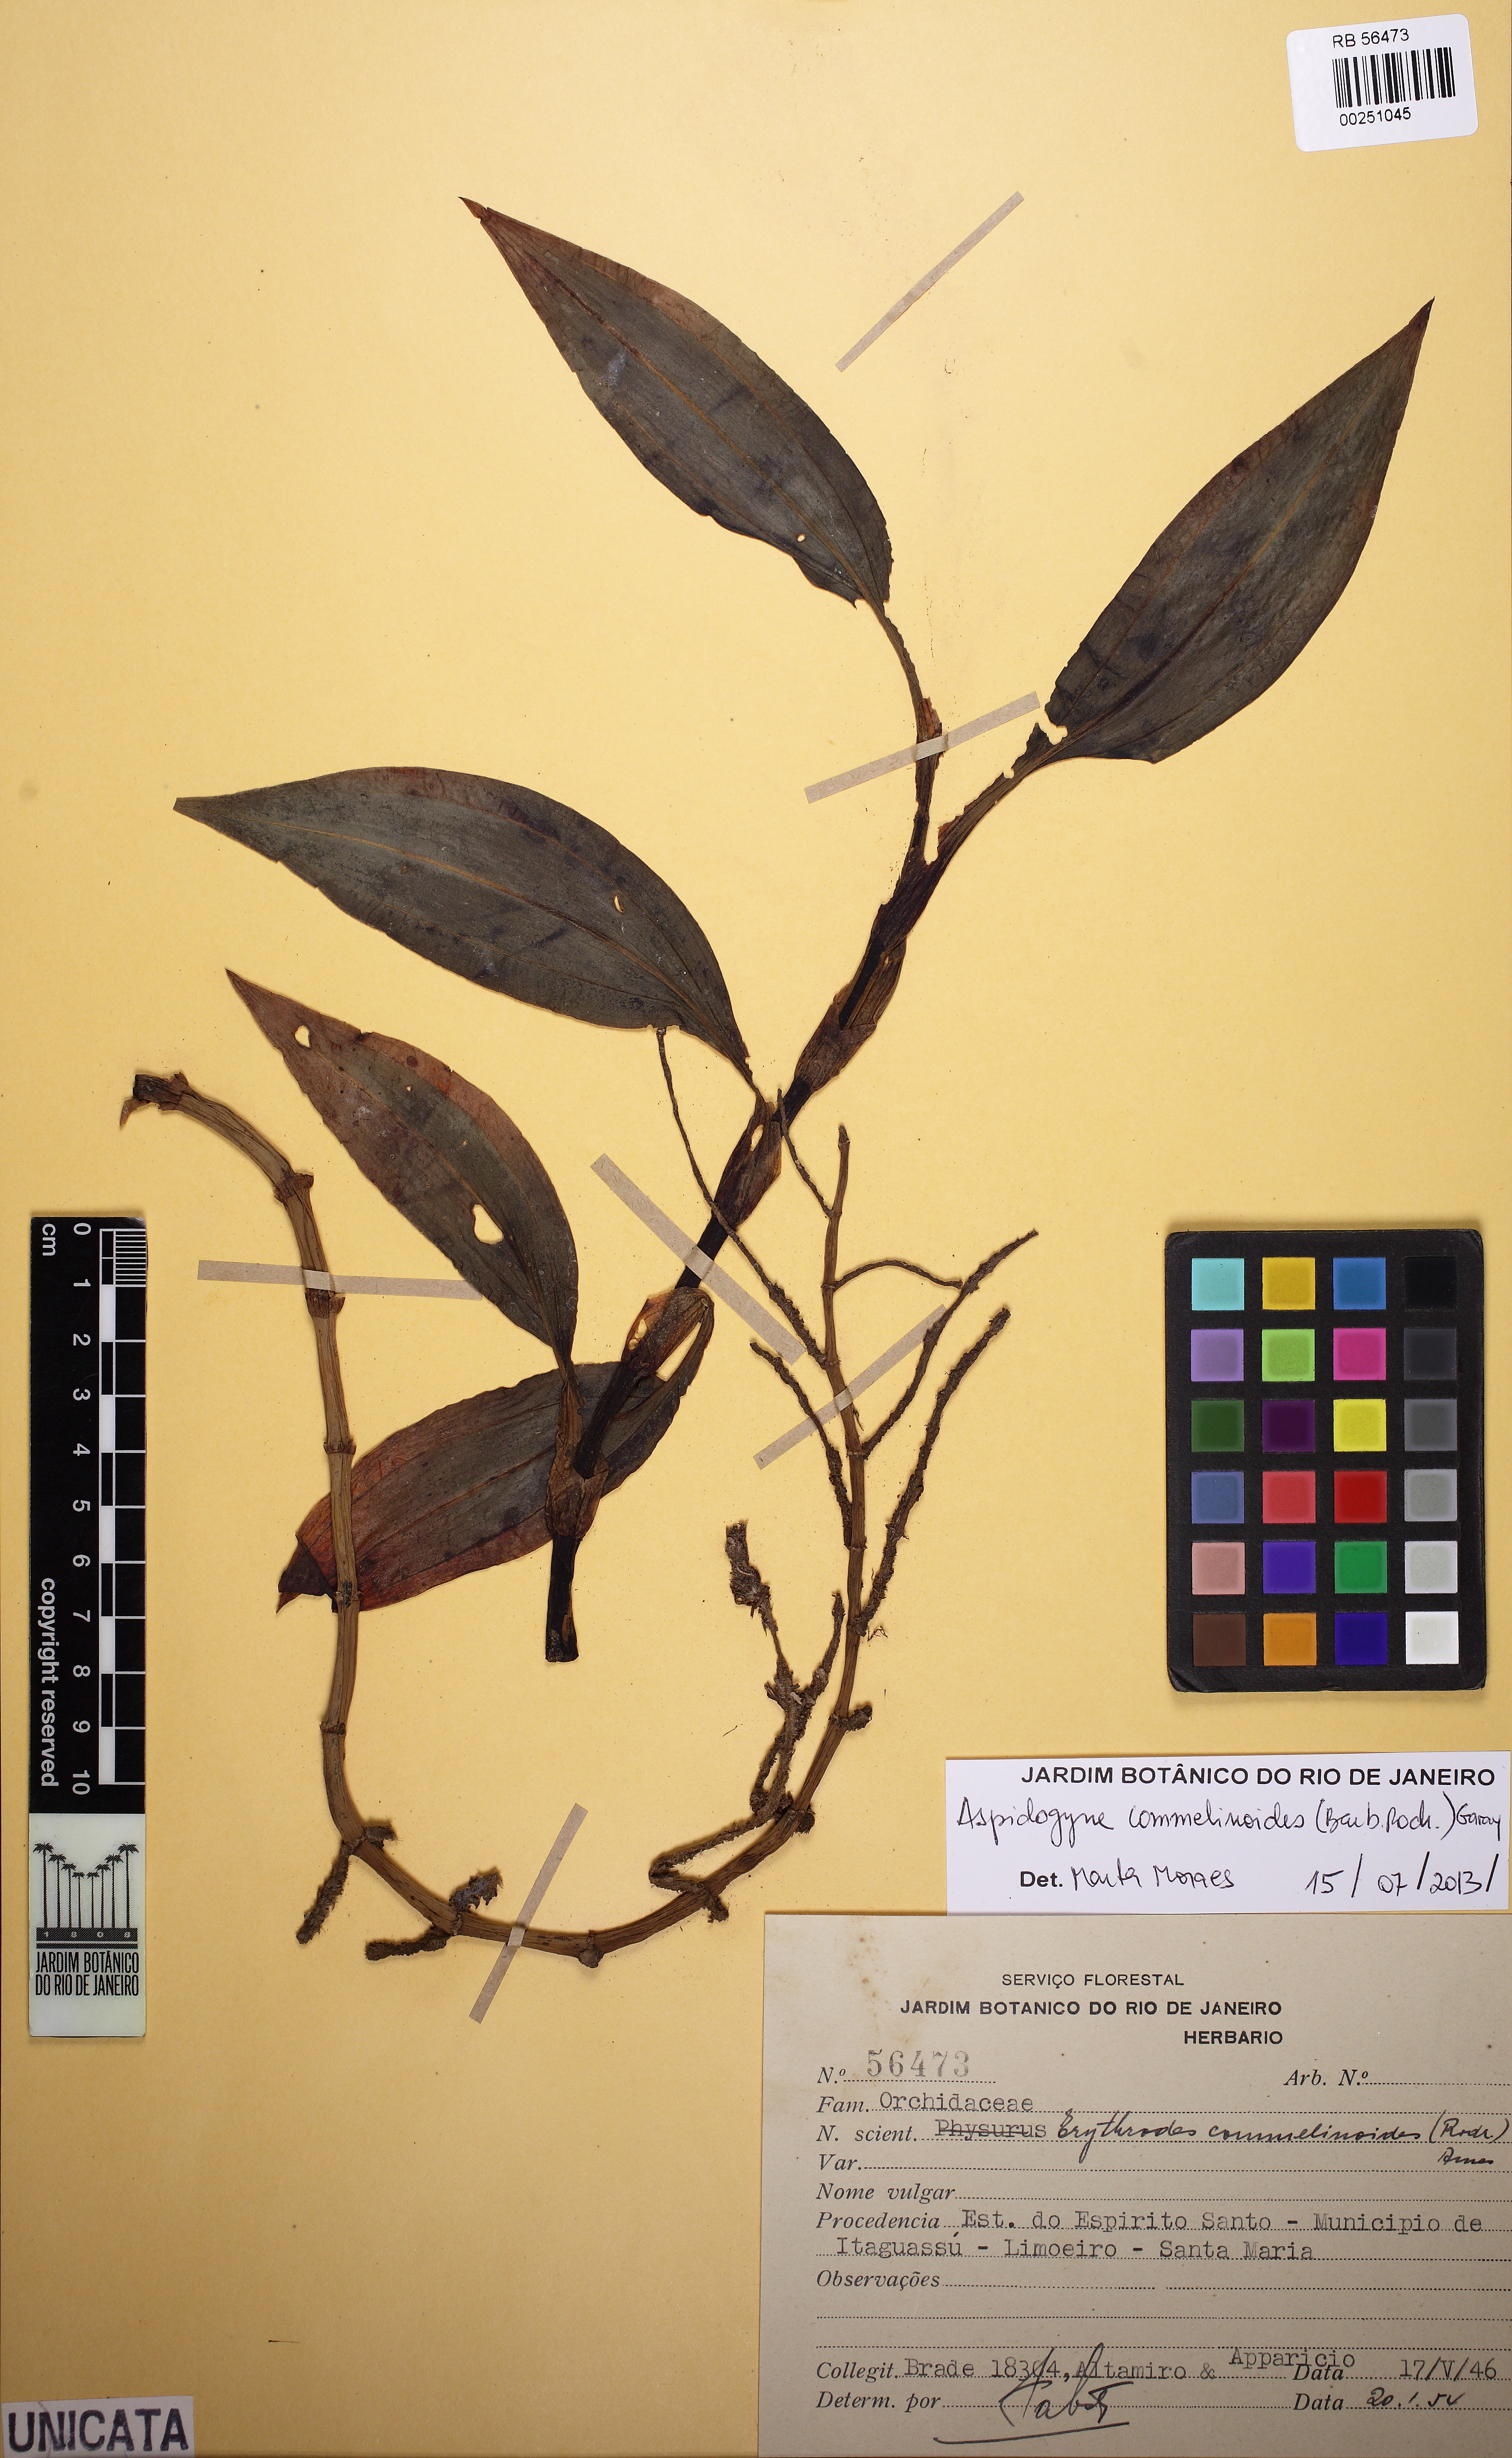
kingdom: Plantae
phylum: Tracheophyta
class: Liliopsida
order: Asparagales
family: Orchidaceae
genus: Aspidogyne
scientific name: Aspidogyne commelinoides
